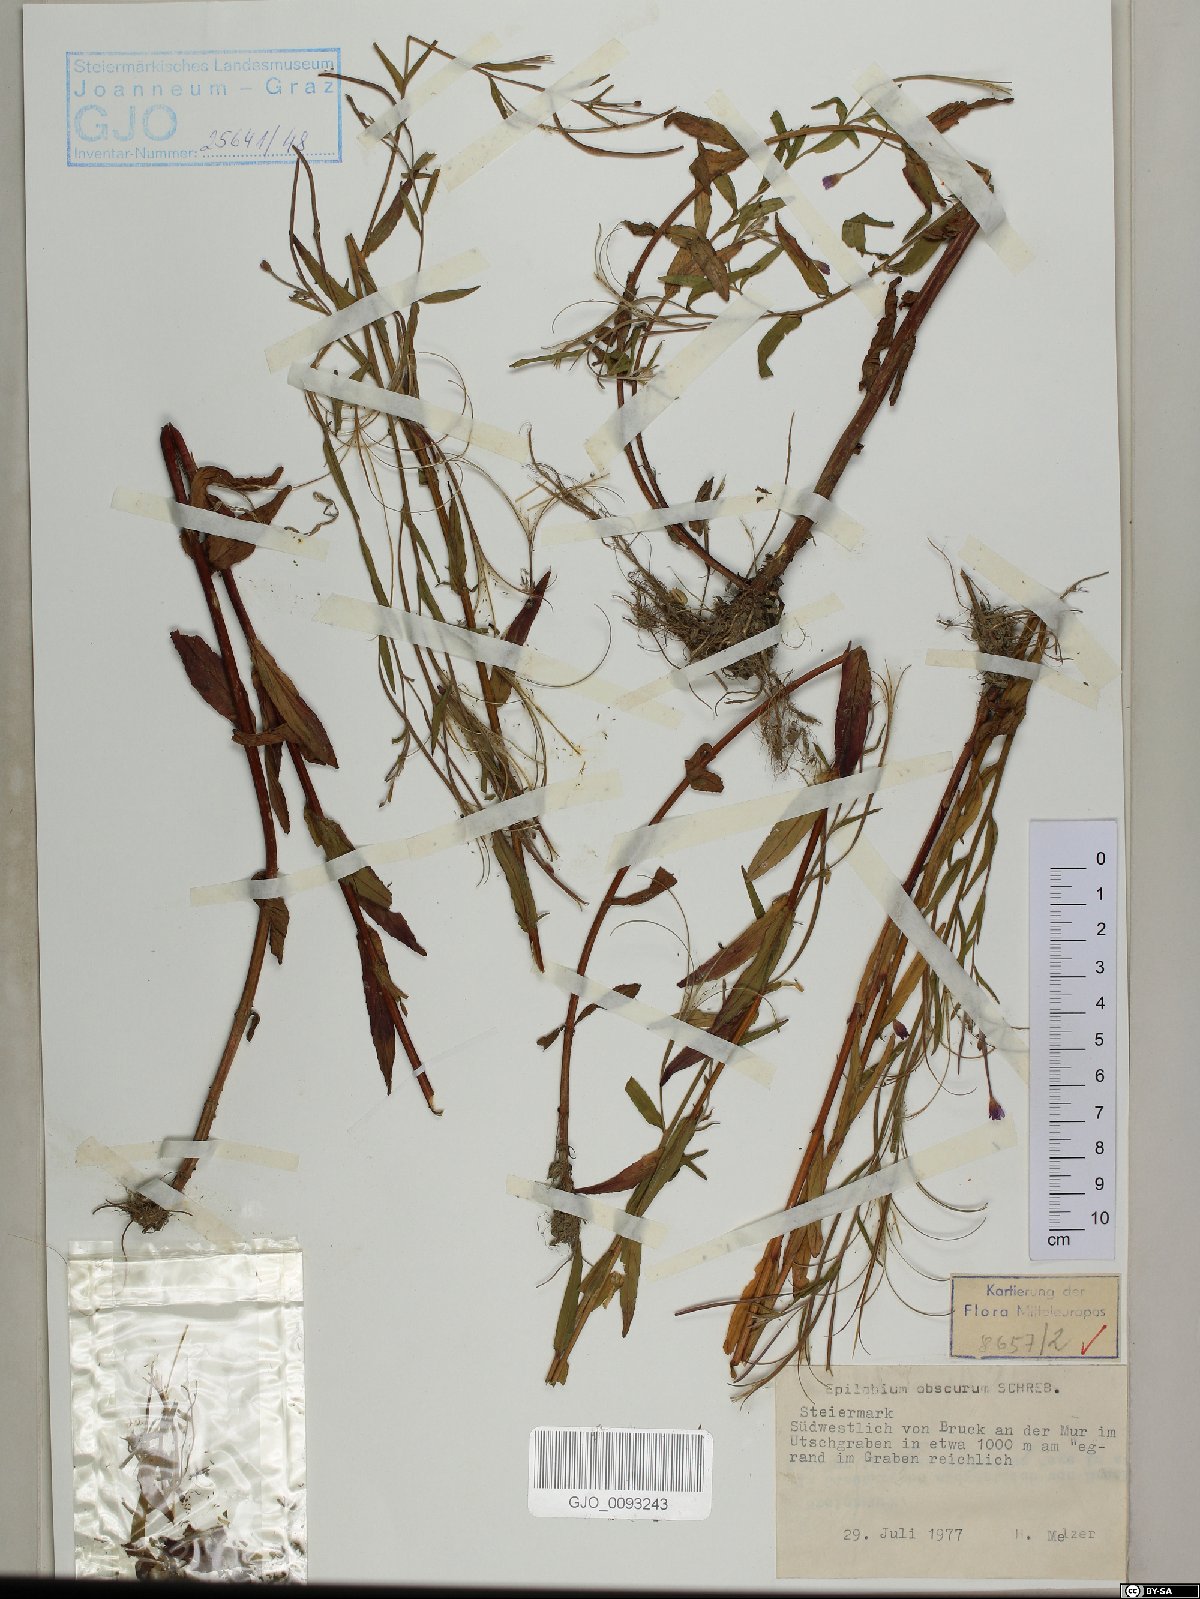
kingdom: Plantae
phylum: Tracheophyta
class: Magnoliopsida
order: Myrtales
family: Onagraceae
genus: Epilobium
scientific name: Epilobium obscurum
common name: Short-fruited willowherb
